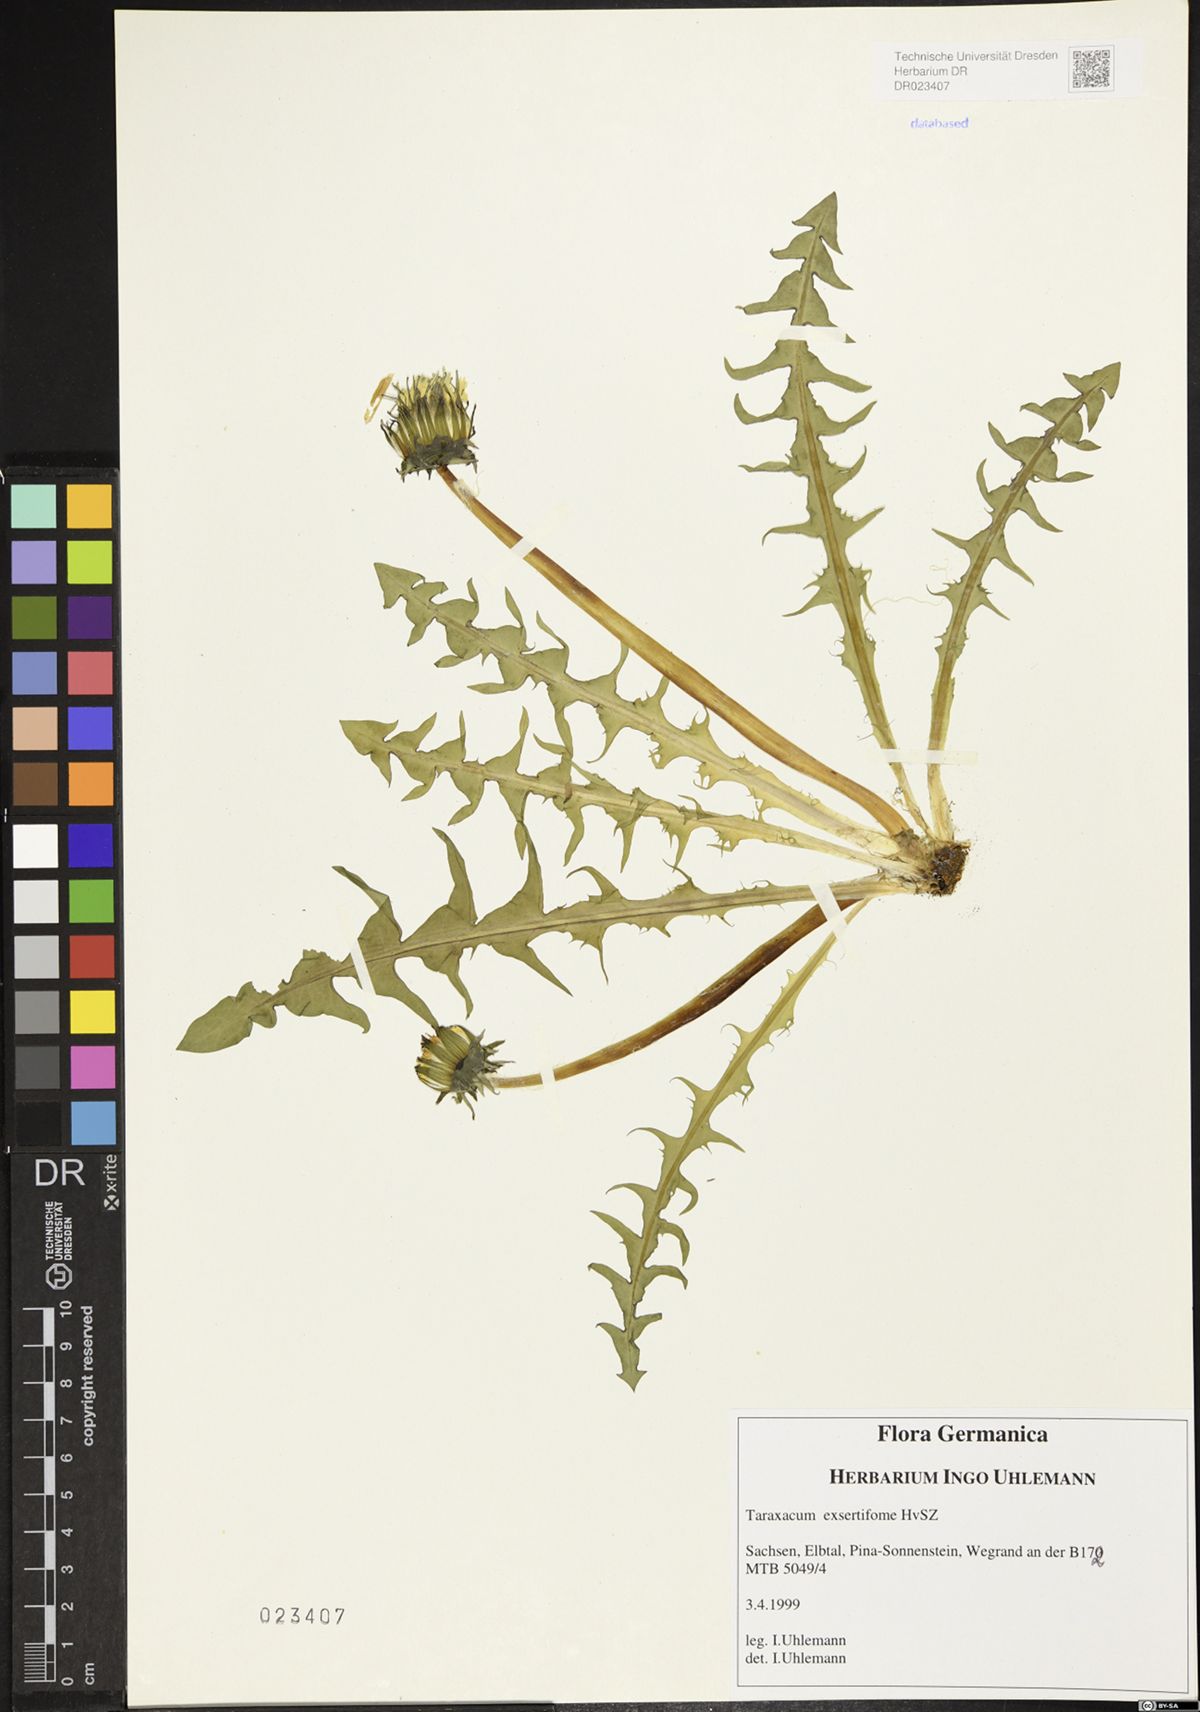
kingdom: Plantae
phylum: Tracheophyta
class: Magnoliopsida
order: Asterales
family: Asteraceae
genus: Taraxacum
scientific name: Taraxacum exsertiforme
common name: Erect-bracted dandelion
